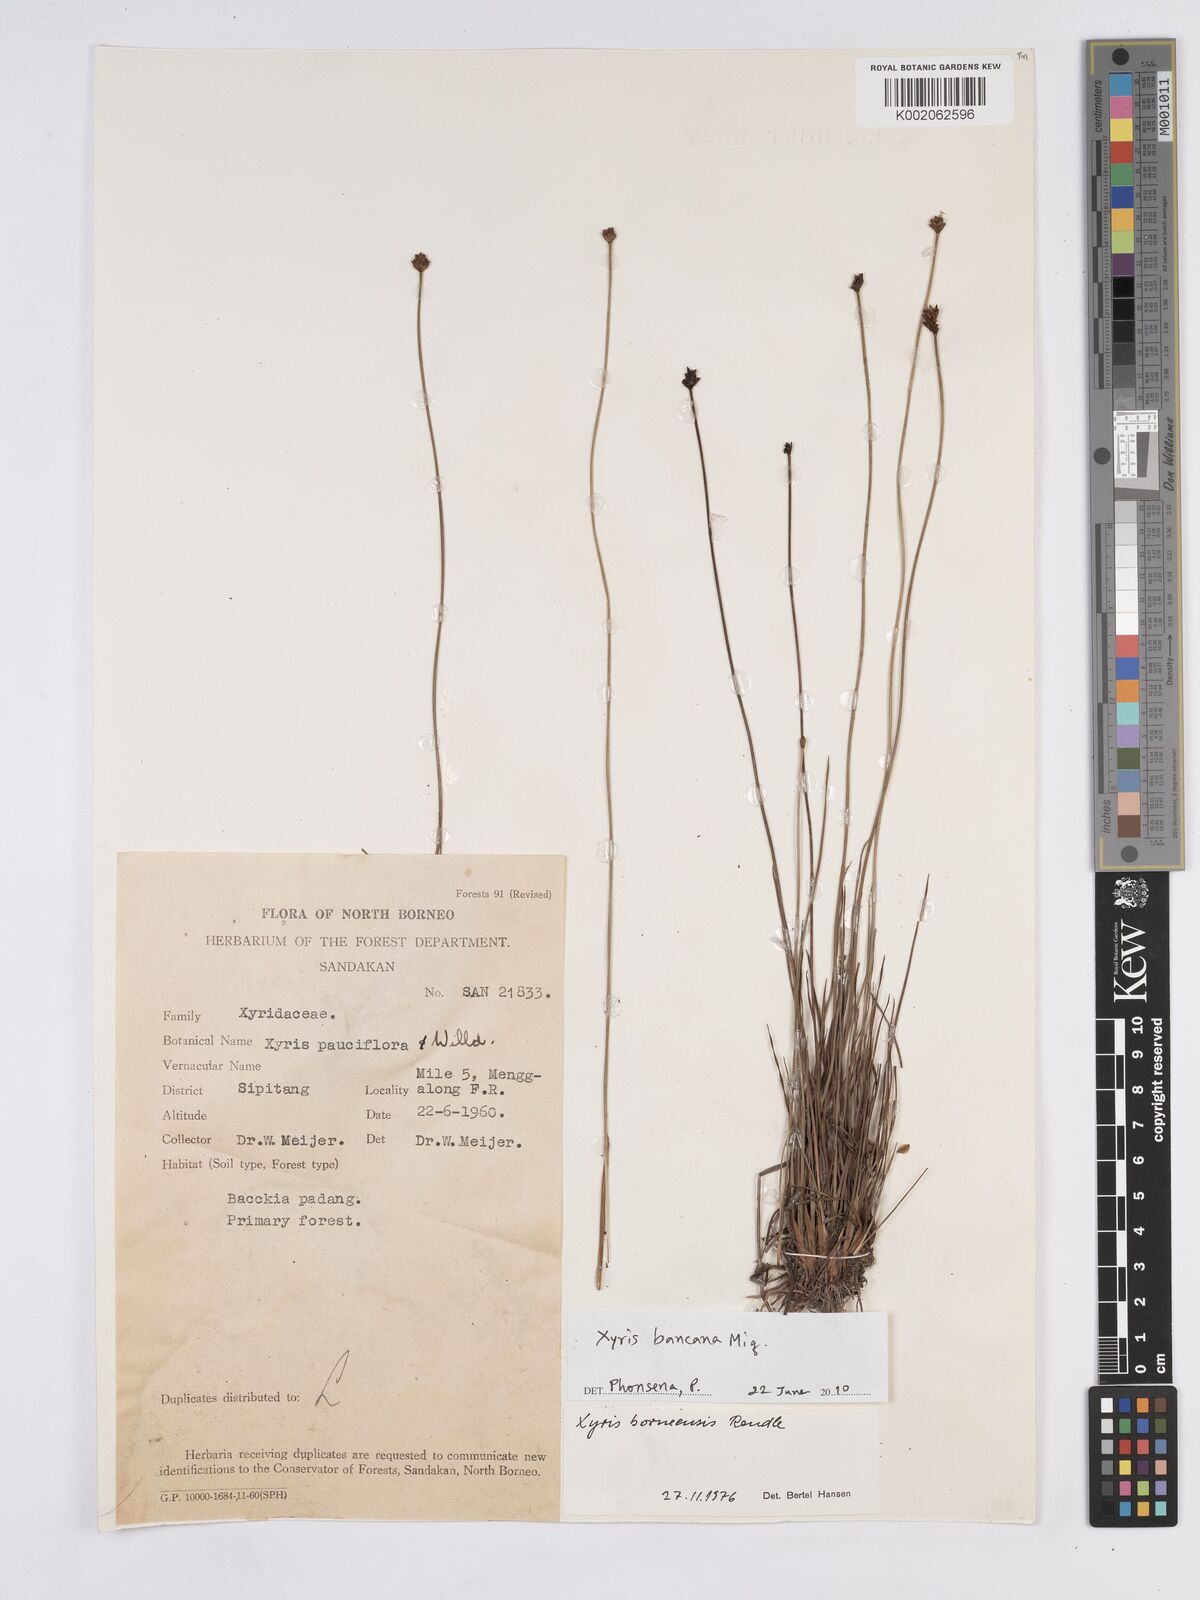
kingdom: Plantae
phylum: Tracheophyta
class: Liliopsida
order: Poales
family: Xyridaceae
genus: Xyris
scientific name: Xyris bancana
